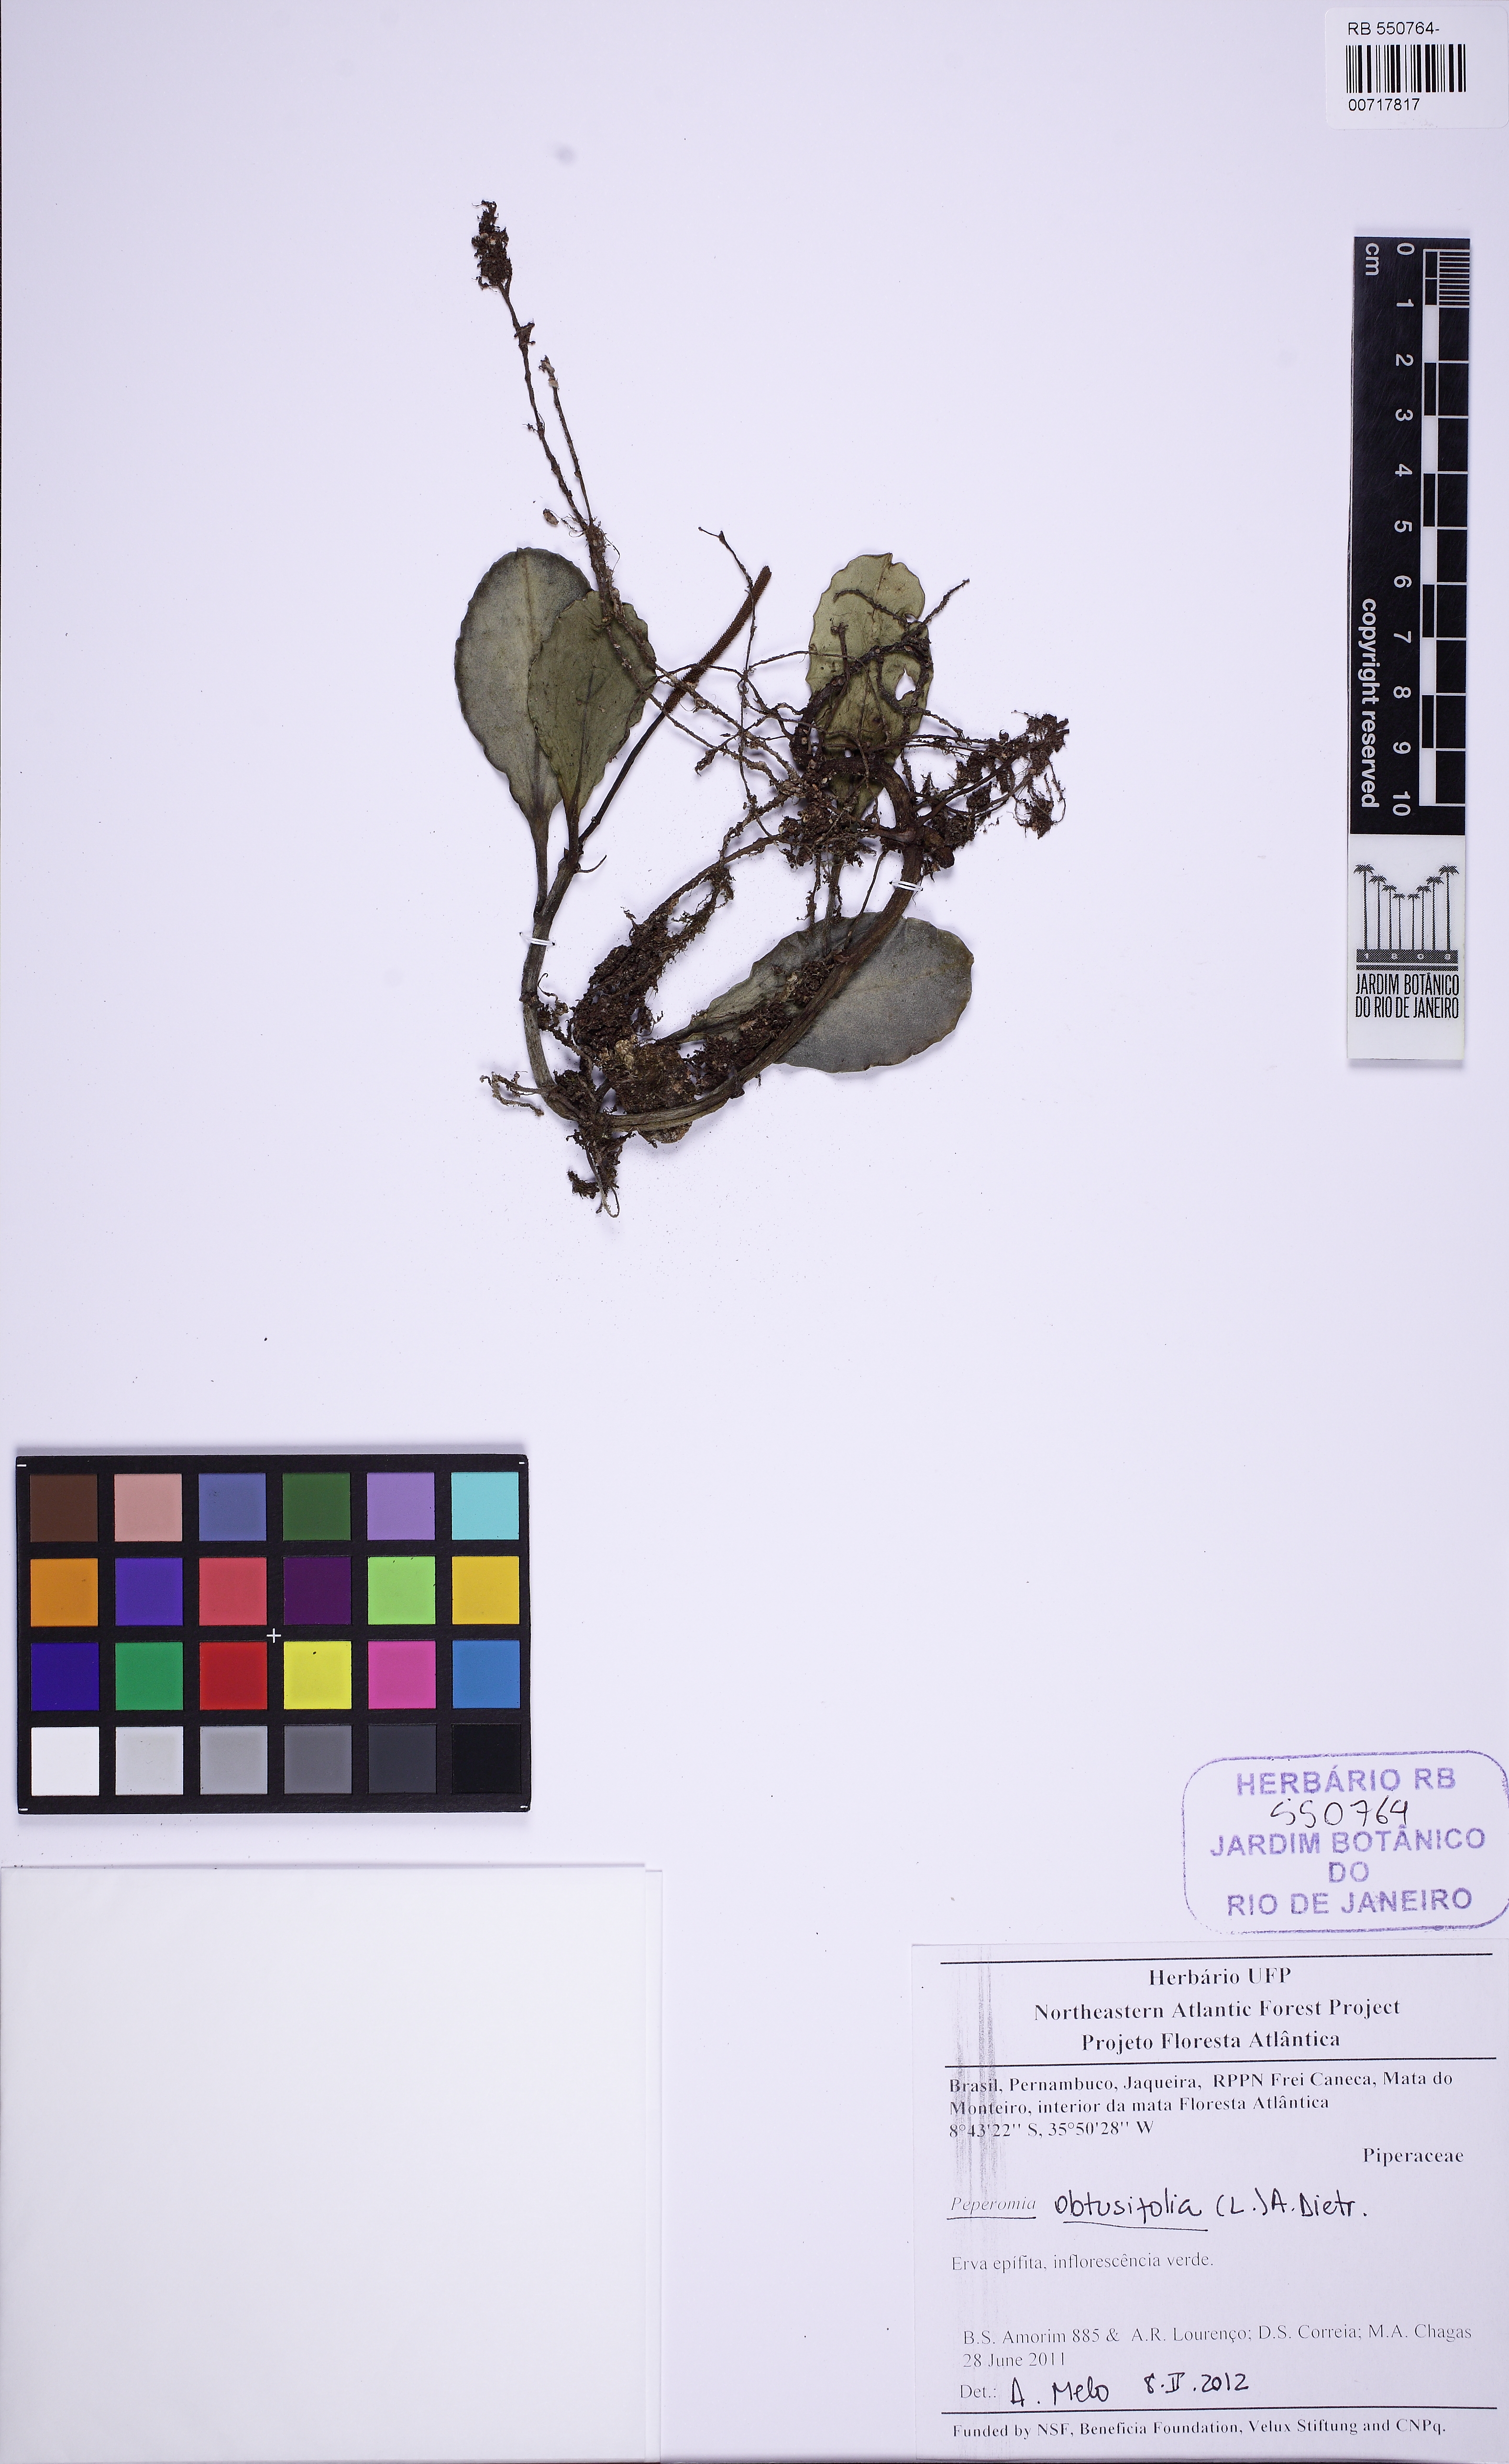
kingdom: Plantae
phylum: Tracheophyta
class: Magnoliopsida
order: Piperales
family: Piperaceae
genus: Peperomia
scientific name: Peperomia obtusifolia
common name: Baby rubberplant
